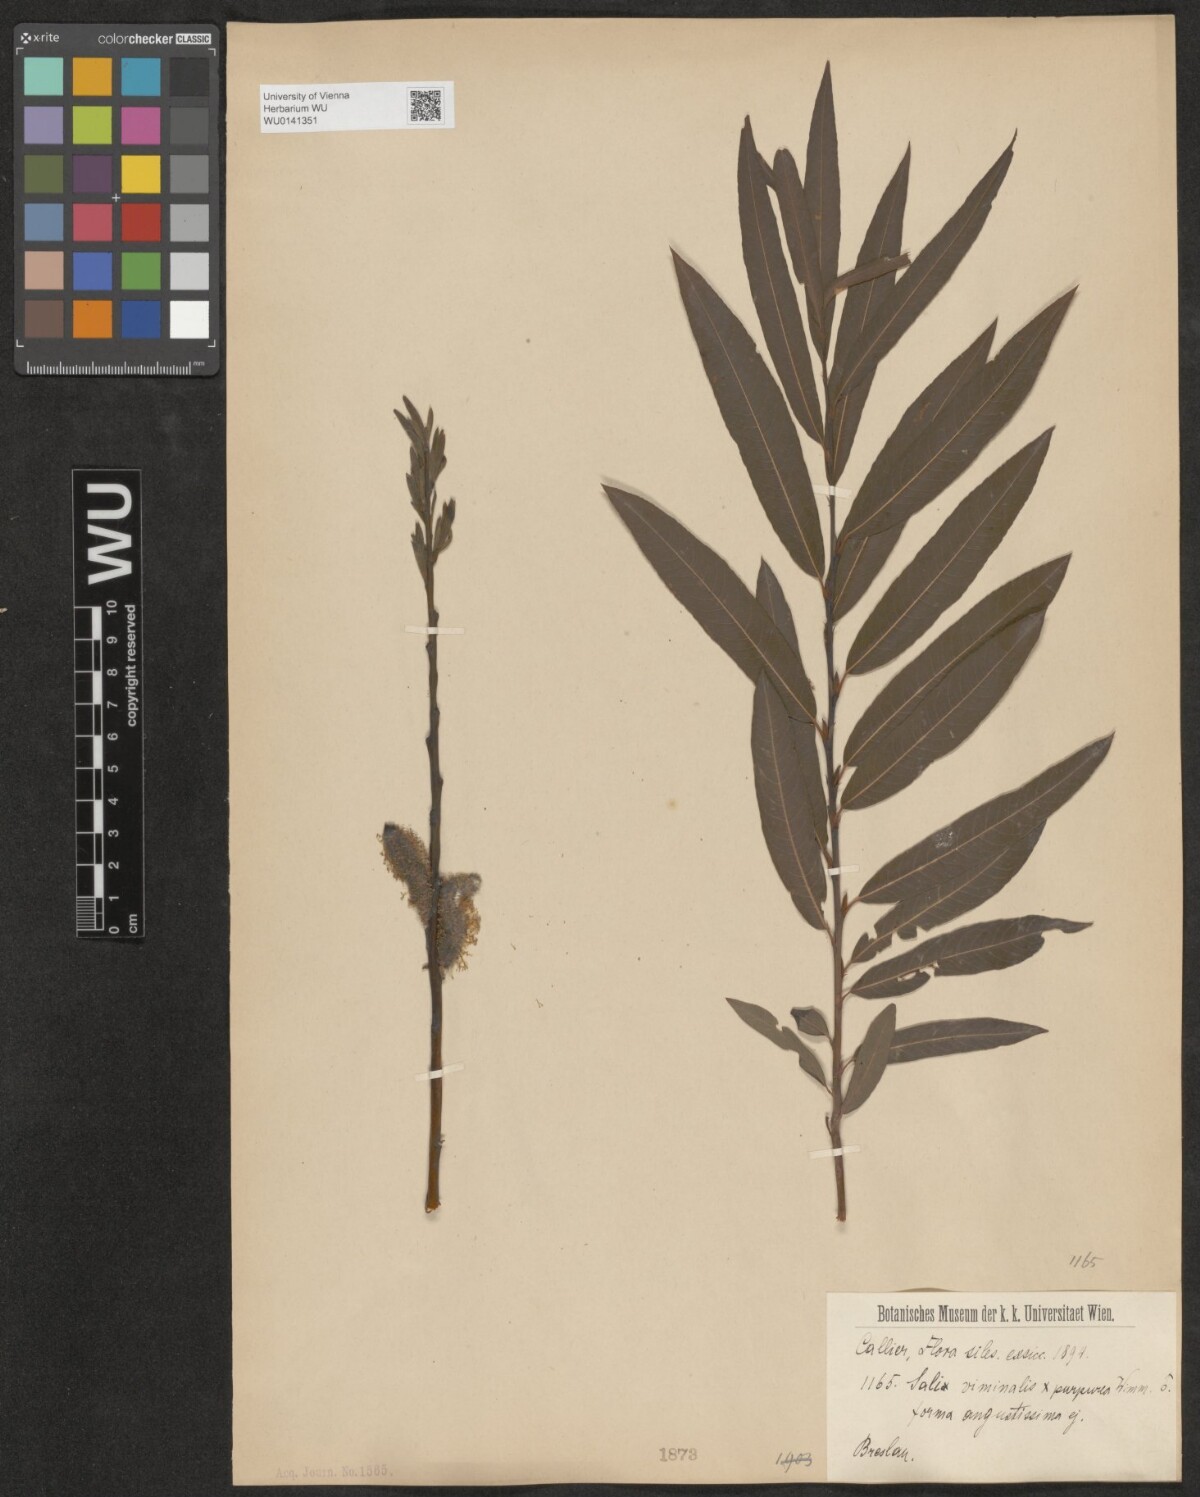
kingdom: Plantae
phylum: Tracheophyta
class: Magnoliopsida
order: Malpighiales
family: Salicaceae
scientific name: Salicaceae
